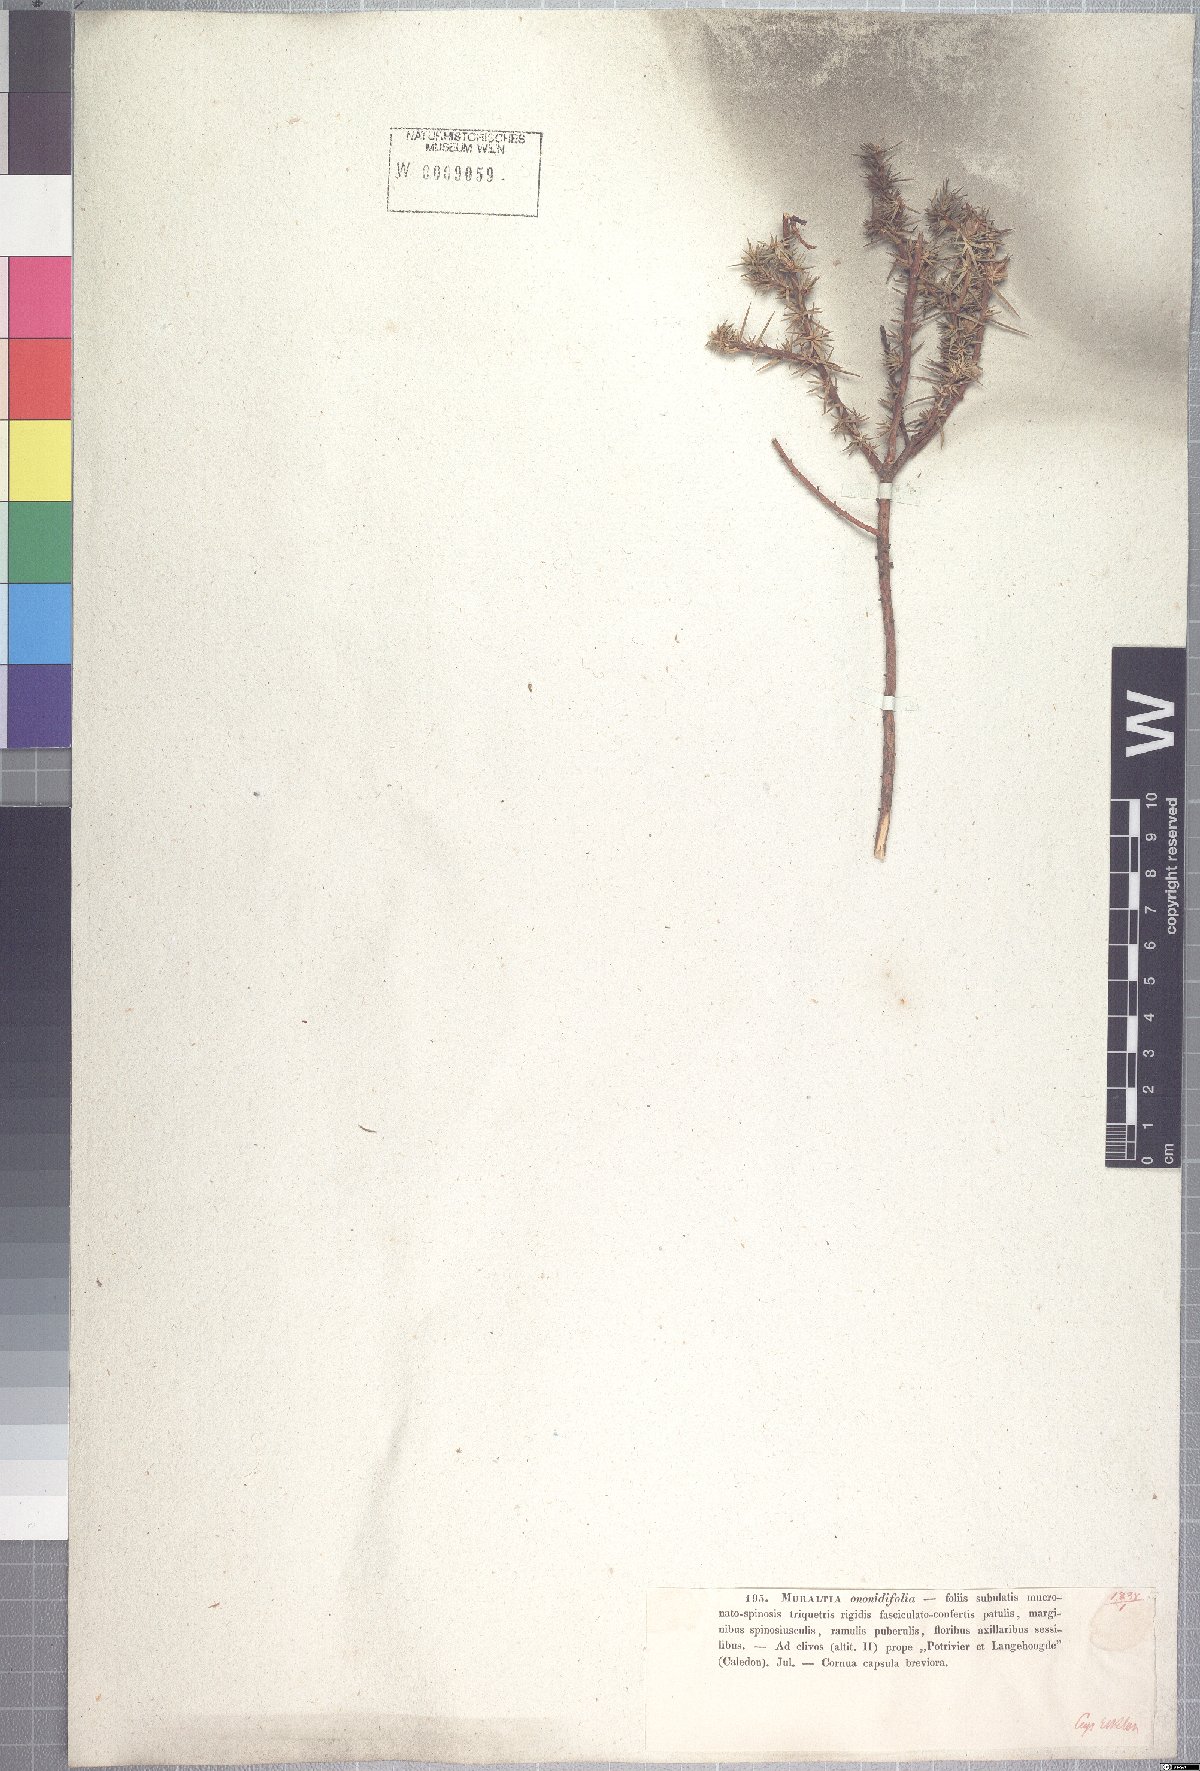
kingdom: Plantae
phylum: Tracheophyta
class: Magnoliopsida
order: Fabales
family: Polygalaceae
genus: Muraltia
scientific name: Muraltia ononidifolia
